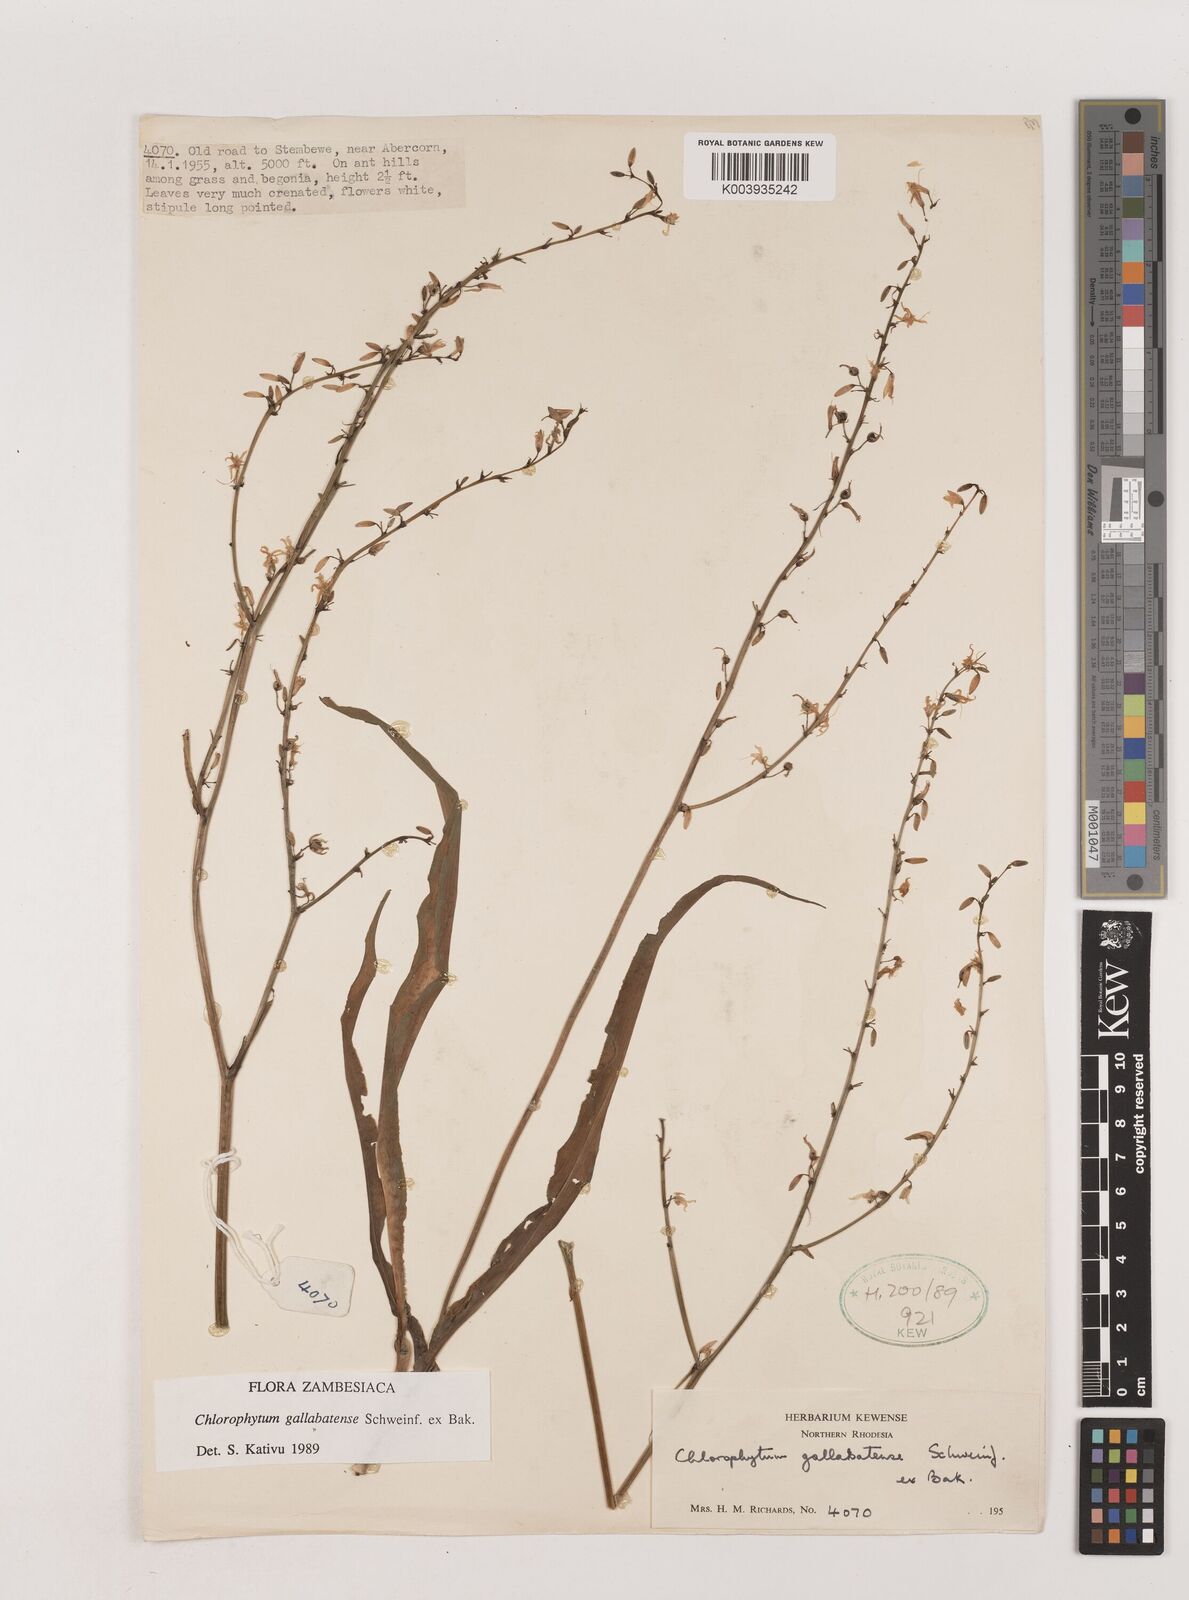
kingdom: Plantae
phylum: Tracheophyta
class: Liliopsida
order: Asparagales
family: Asparagaceae
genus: Chlorophytum
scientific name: Chlorophytum gallabatense
